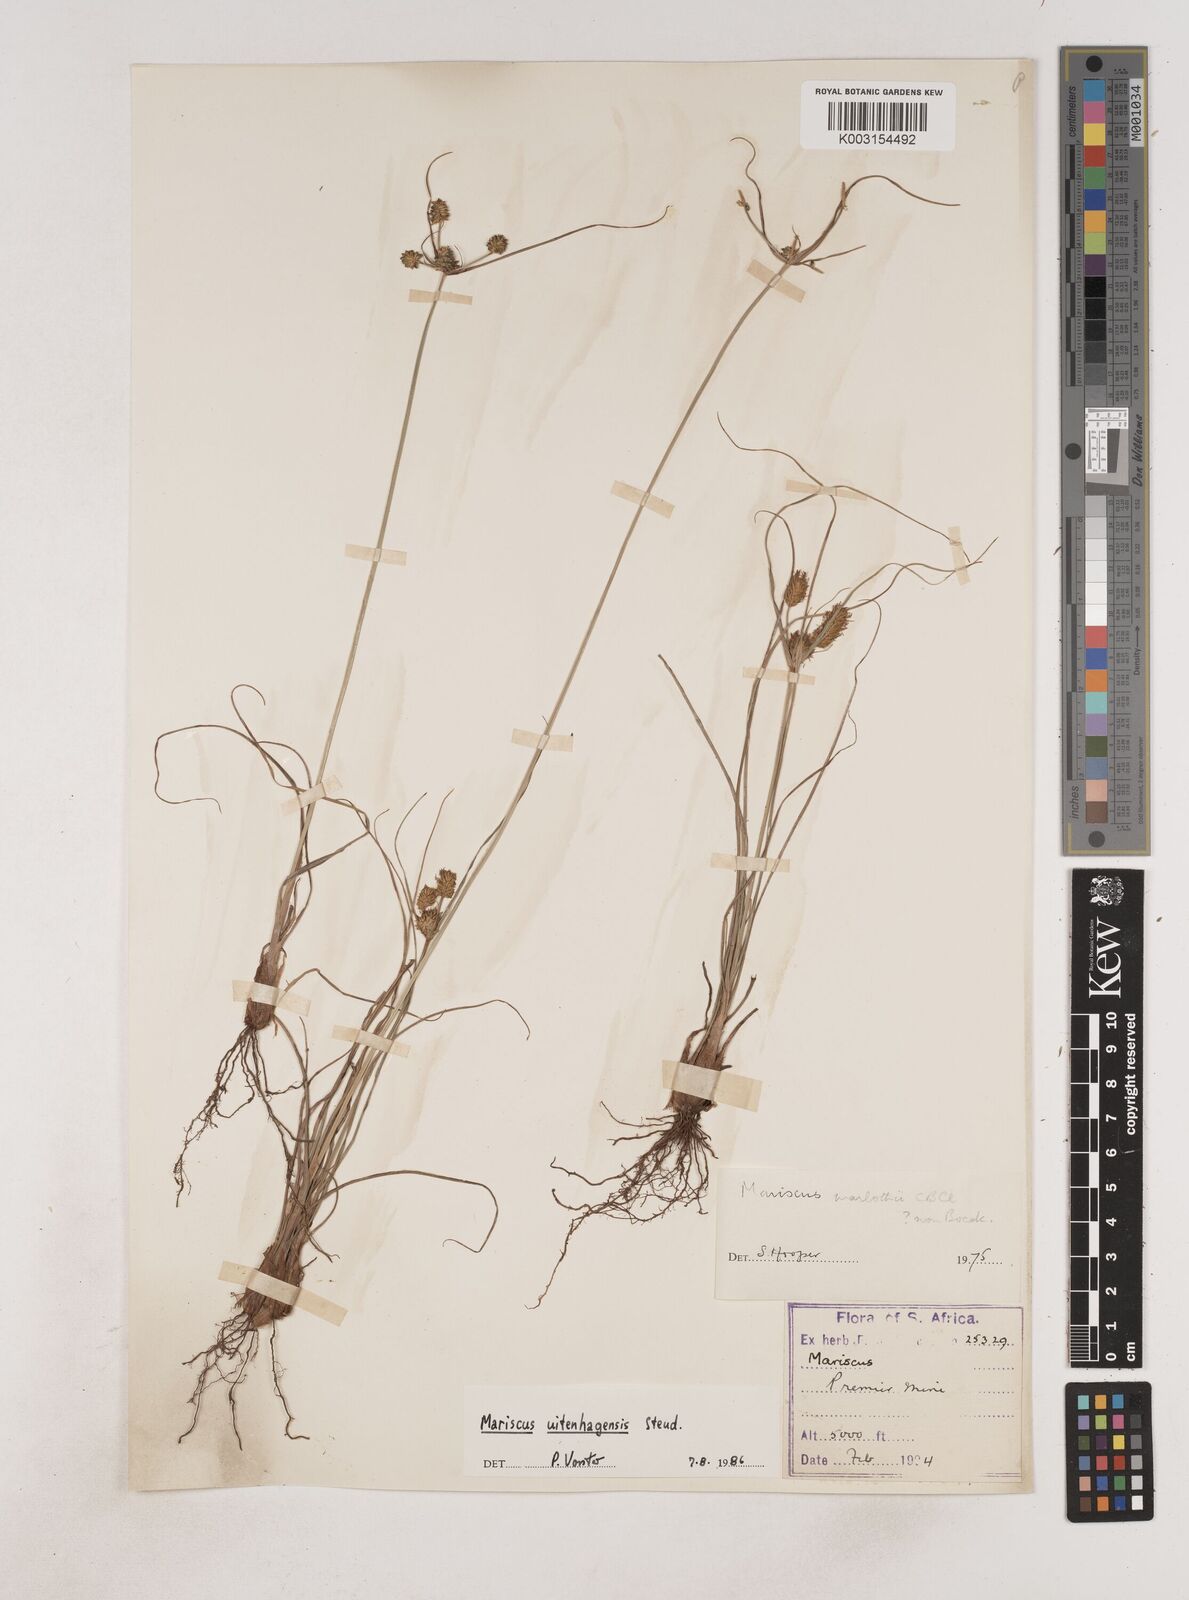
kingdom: Plantae
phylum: Tracheophyta
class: Liliopsida
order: Poales
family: Cyperaceae
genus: Cyperus
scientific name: Cyperus capensis
